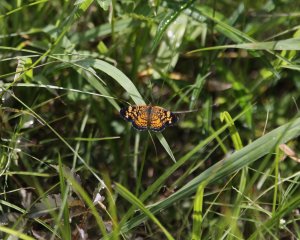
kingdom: Animalia
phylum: Arthropoda
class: Insecta
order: Lepidoptera
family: Nymphalidae
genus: Phyciodes
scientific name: Phyciodes tharos
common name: Pearl Crescent
